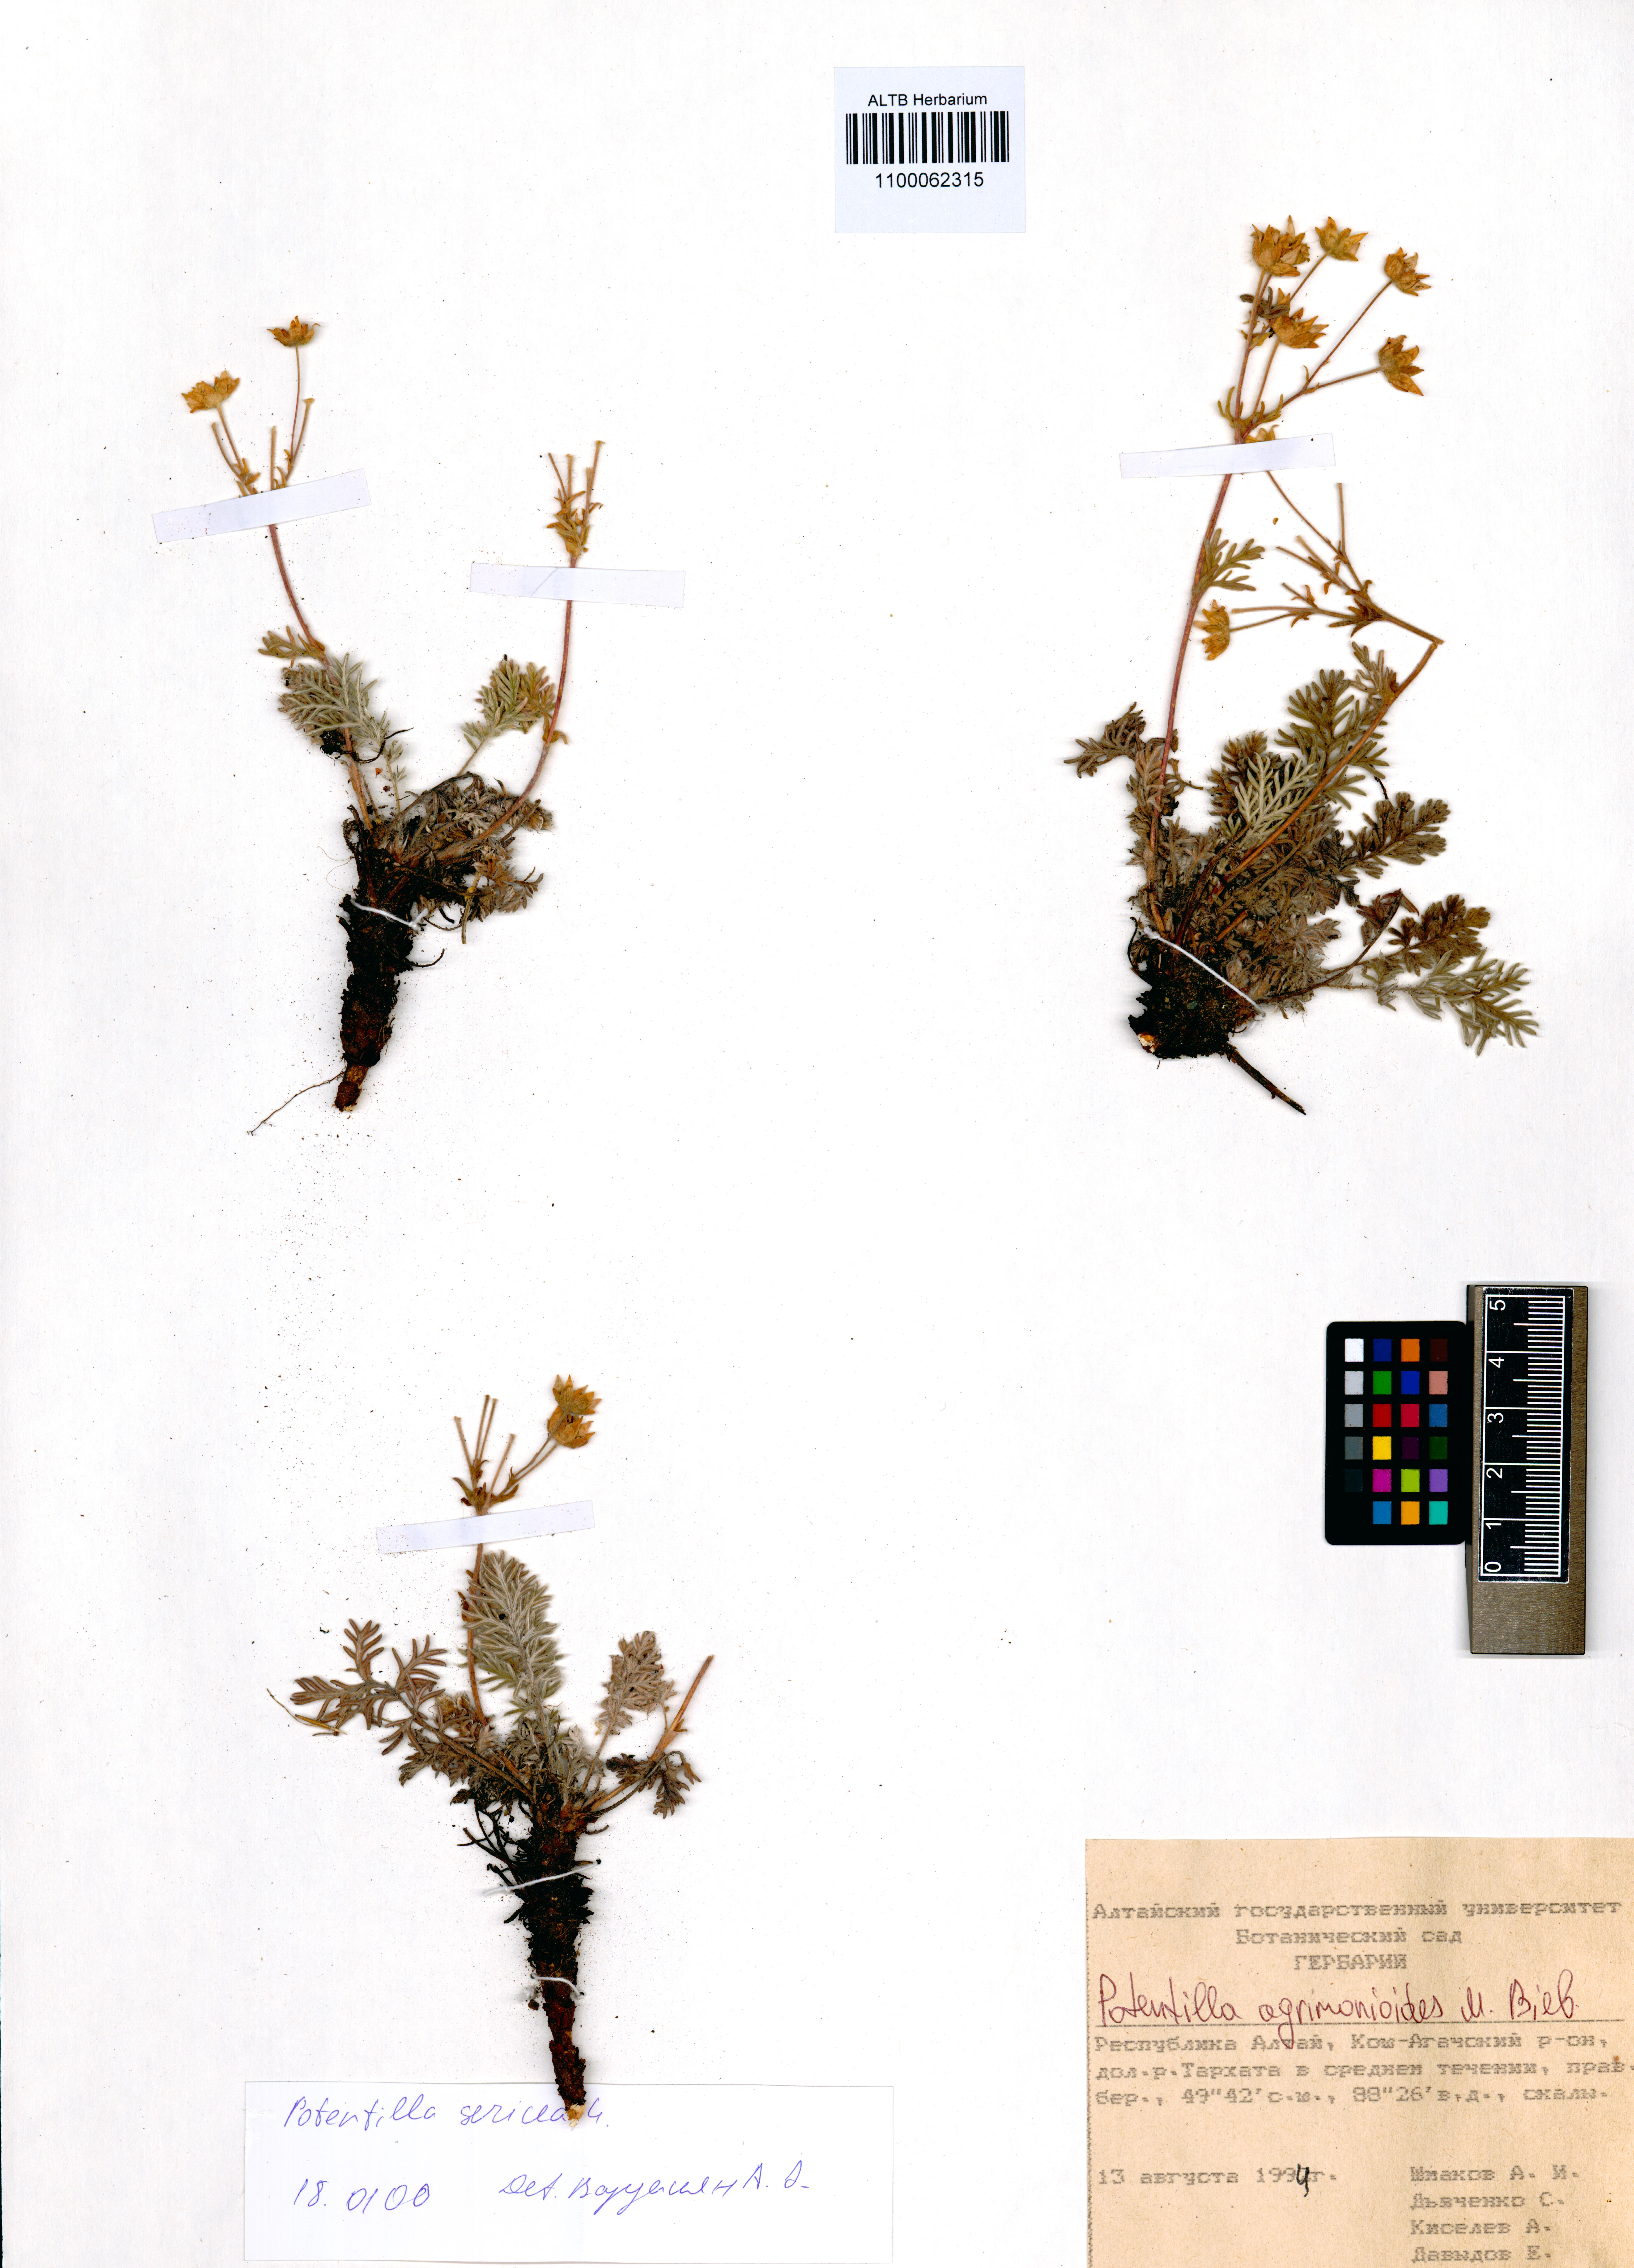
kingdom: Plantae
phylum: Tracheophyta
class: Magnoliopsida
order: Rosales
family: Rosaceae
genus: Potentilla
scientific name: Potentilla agrimonioides
